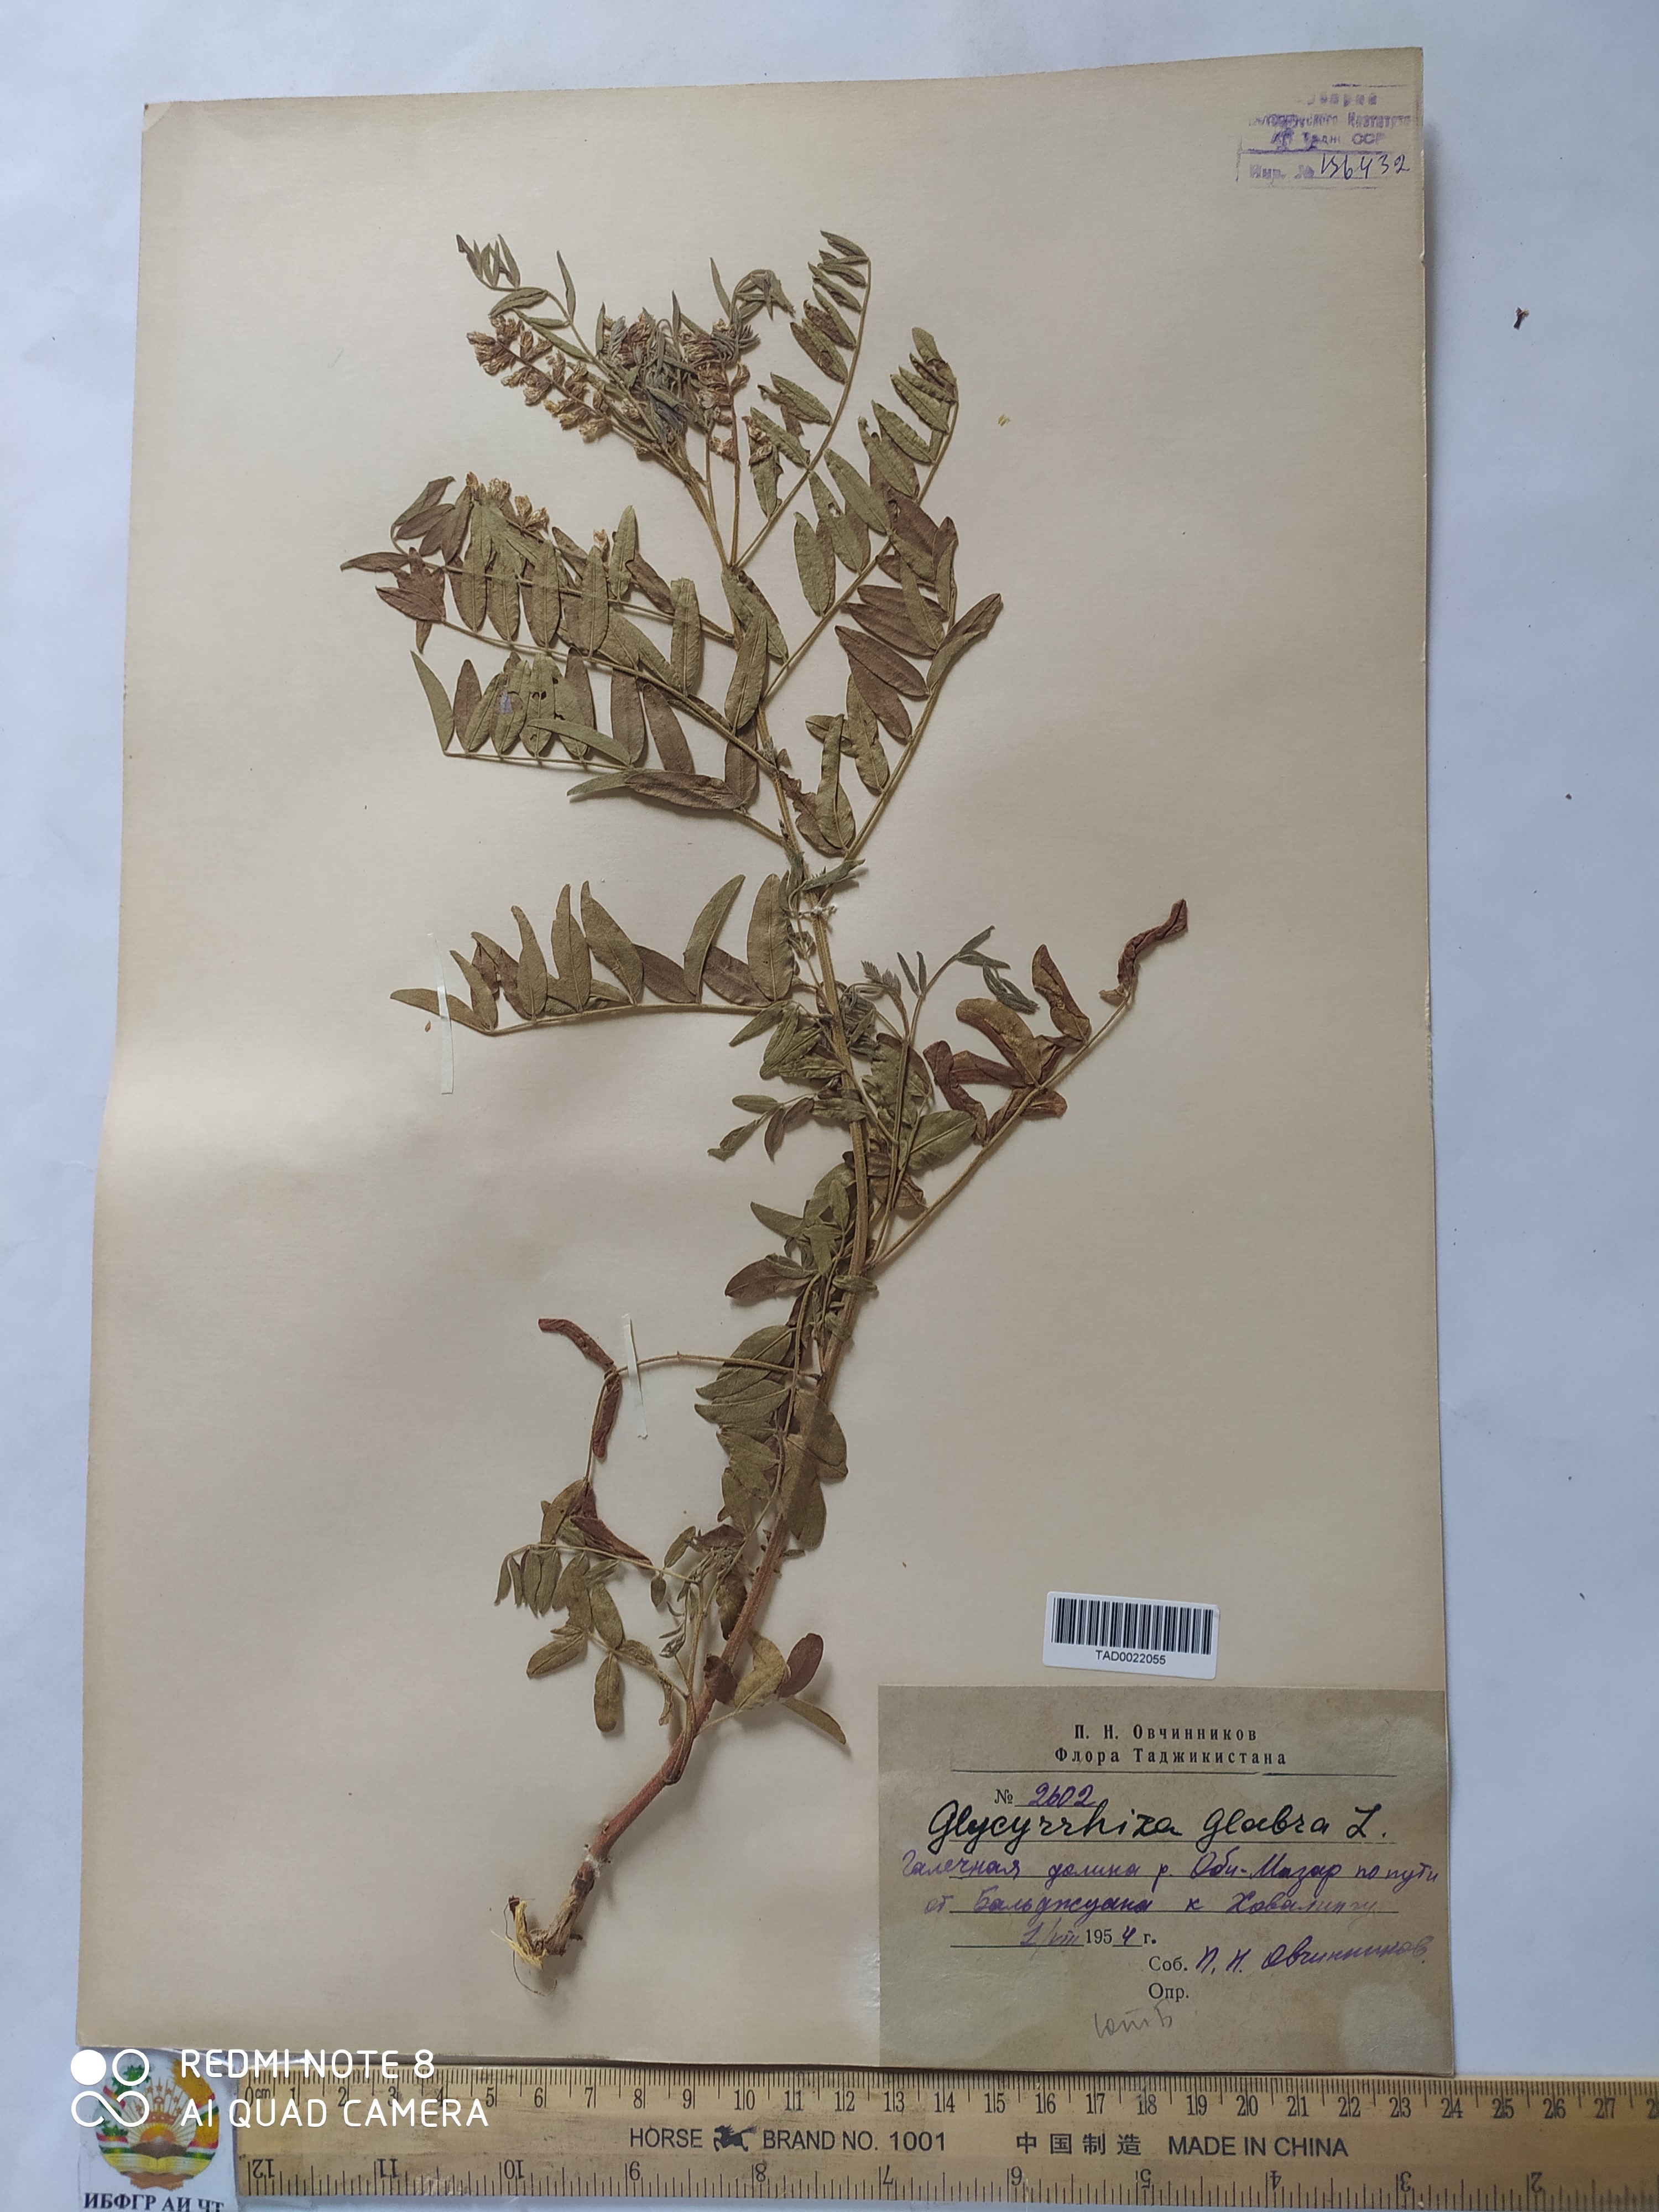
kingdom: Plantae
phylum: Tracheophyta
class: Magnoliopsida
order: Fabales
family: Fabaceae
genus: Glycyrrhiza
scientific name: Glycyrrhiza glabra
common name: Liquorice
